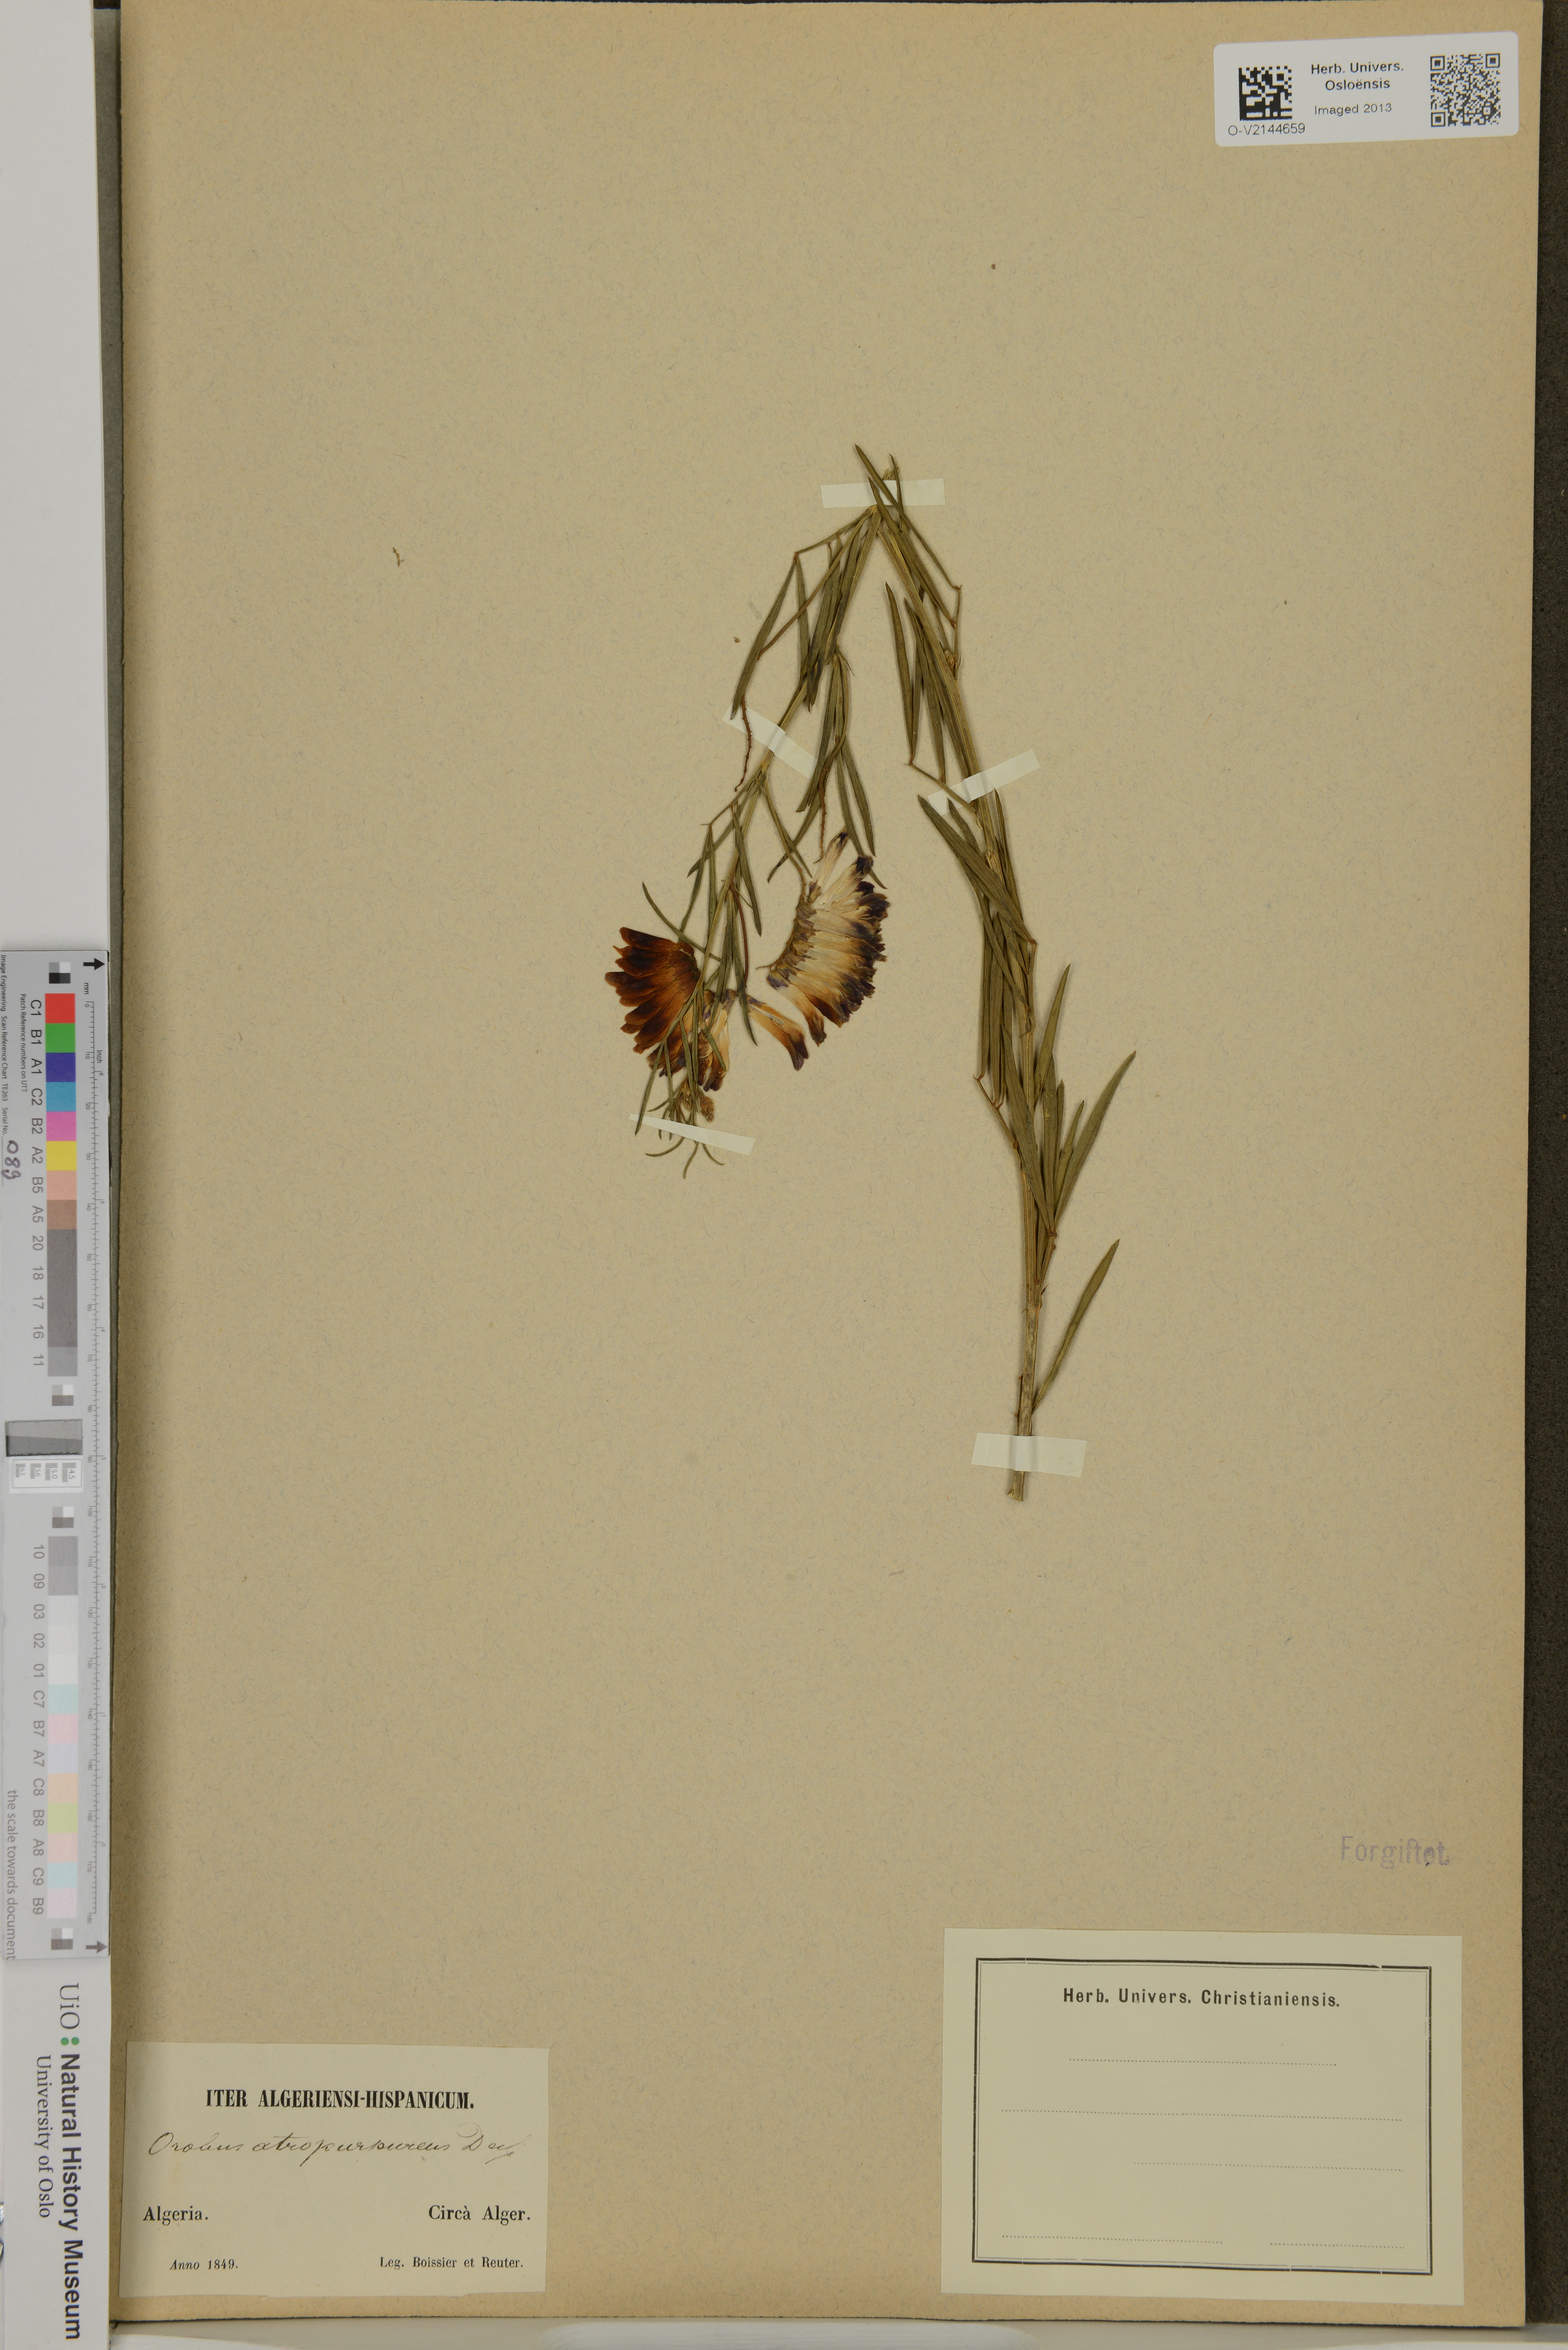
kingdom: Plantae
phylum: Tracheophyta
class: Magnoliopsida
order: Fabales
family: Fabaceae
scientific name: Fabaceae
